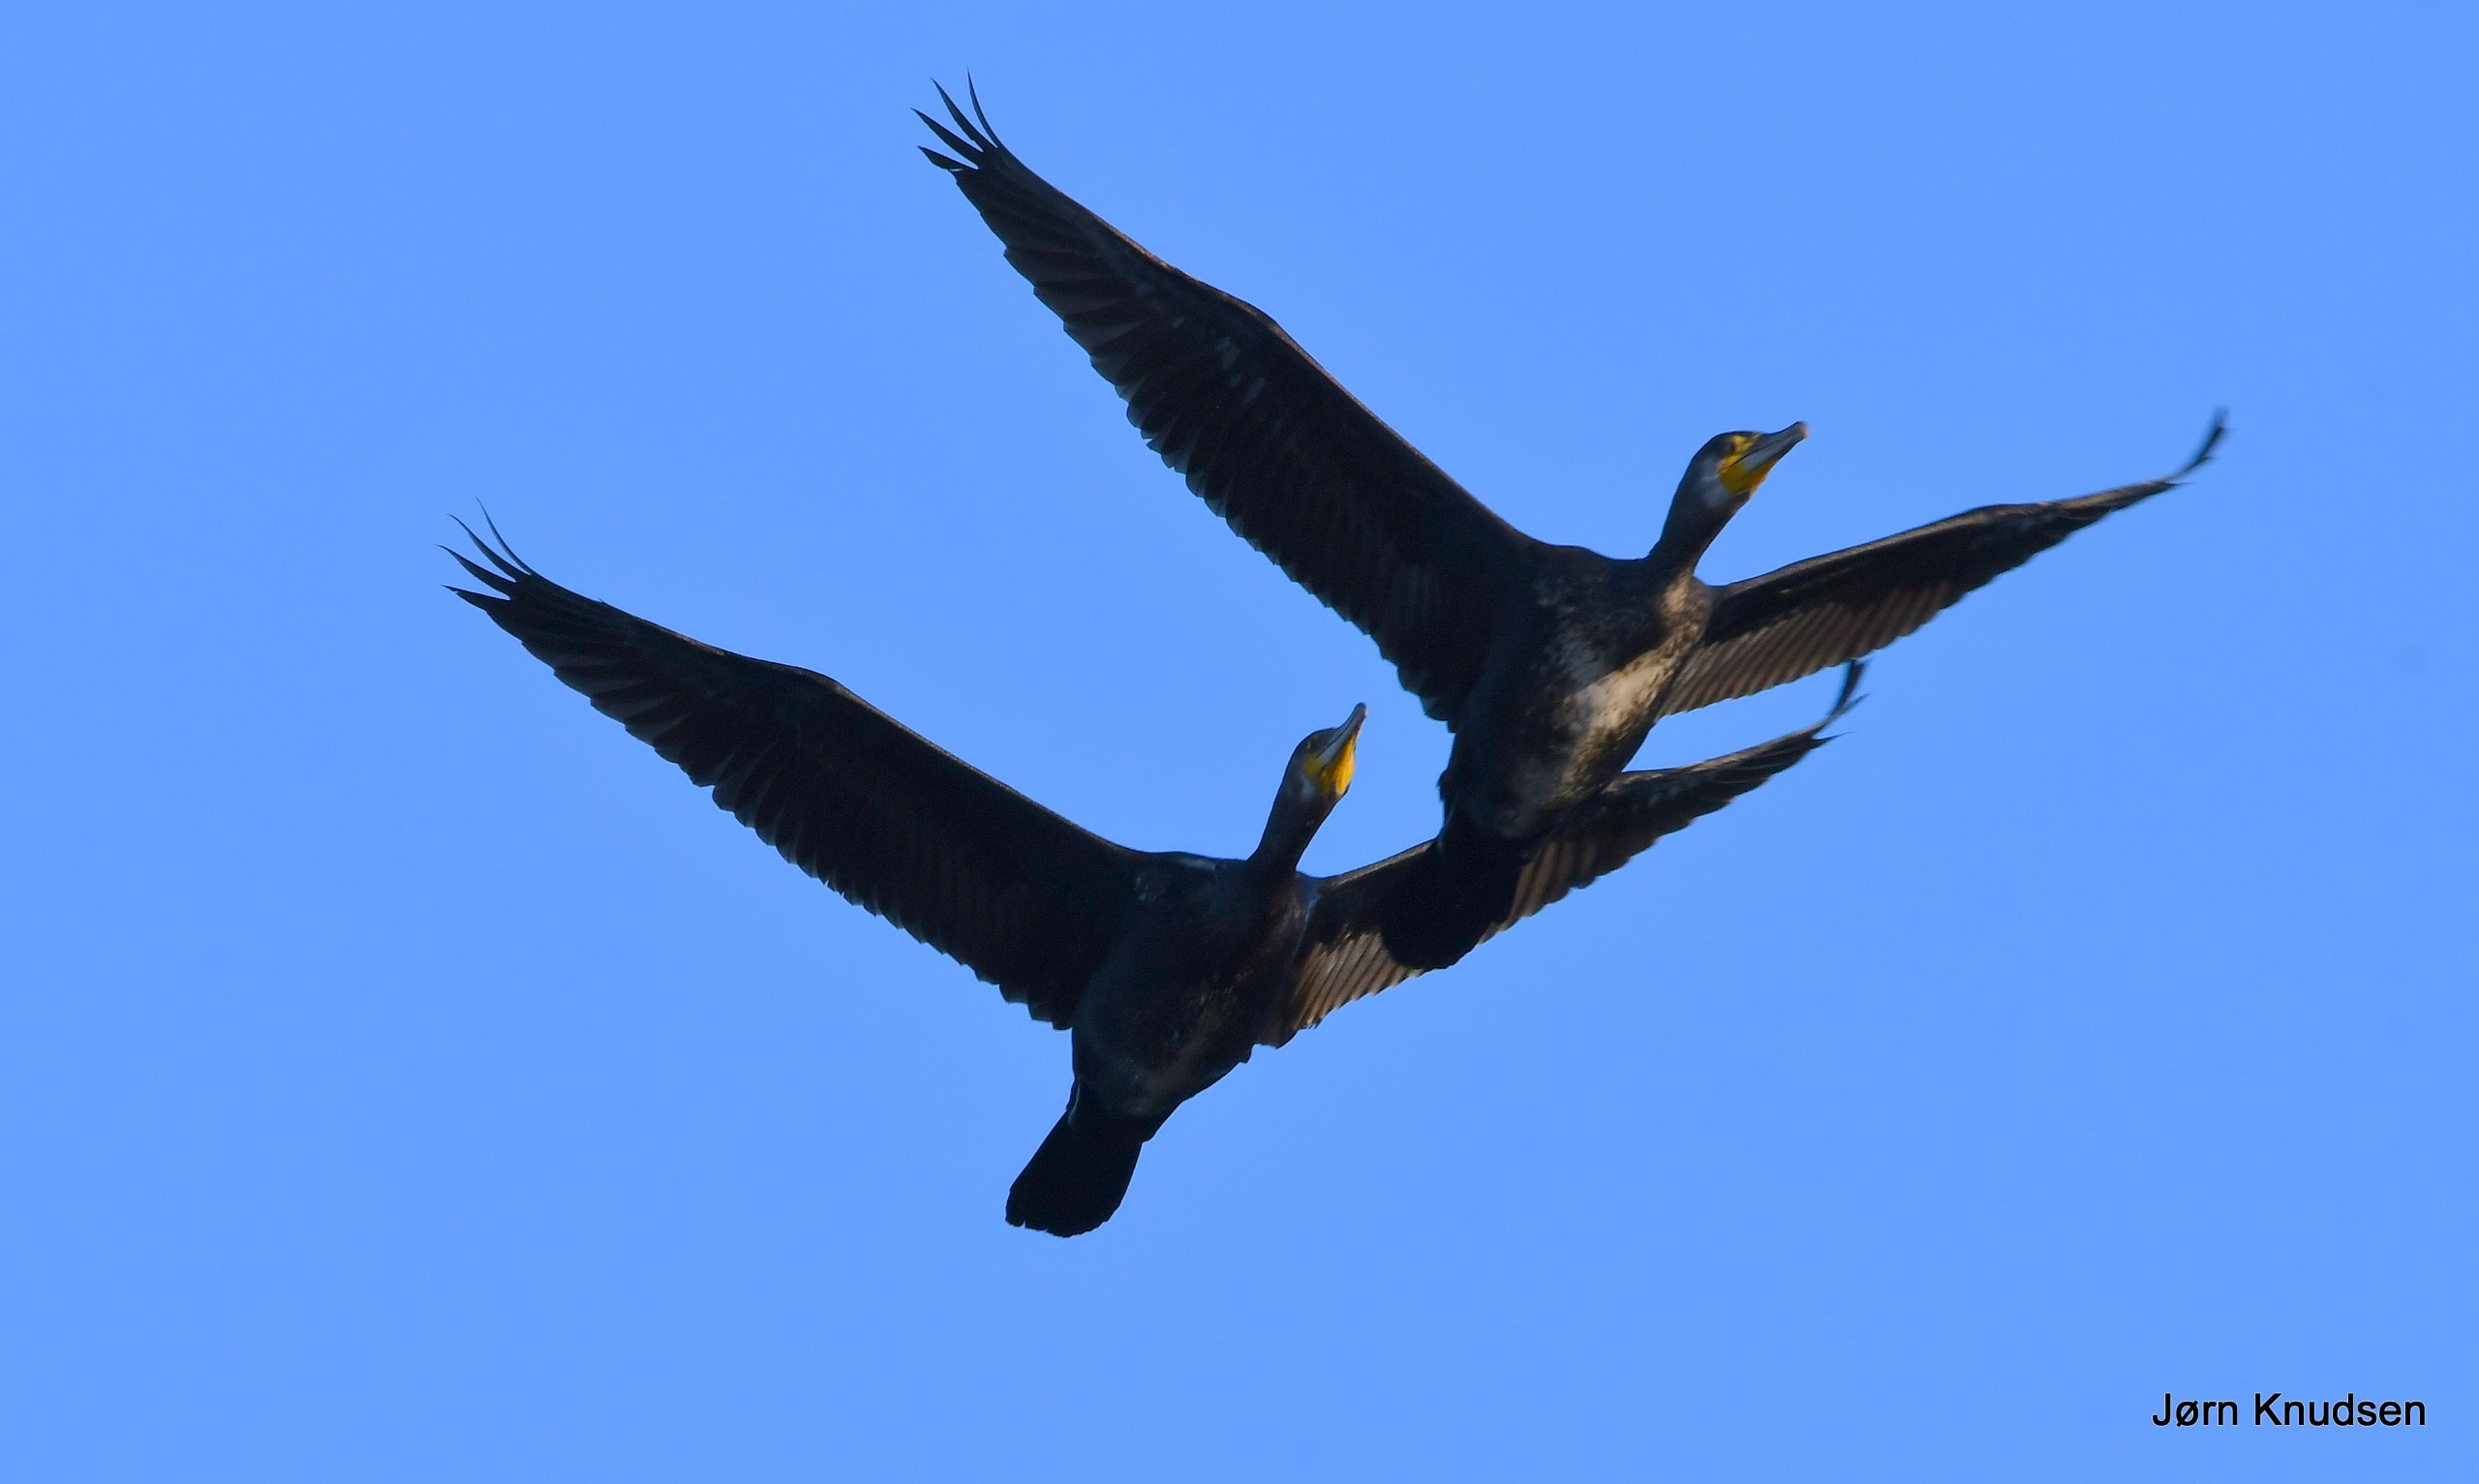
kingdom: Animalia
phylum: Chordata
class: Aves
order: Suliformes
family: Phalacrocoracidae
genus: Phalacrocorax
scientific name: Phalacrocorax carbo
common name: Skarv
